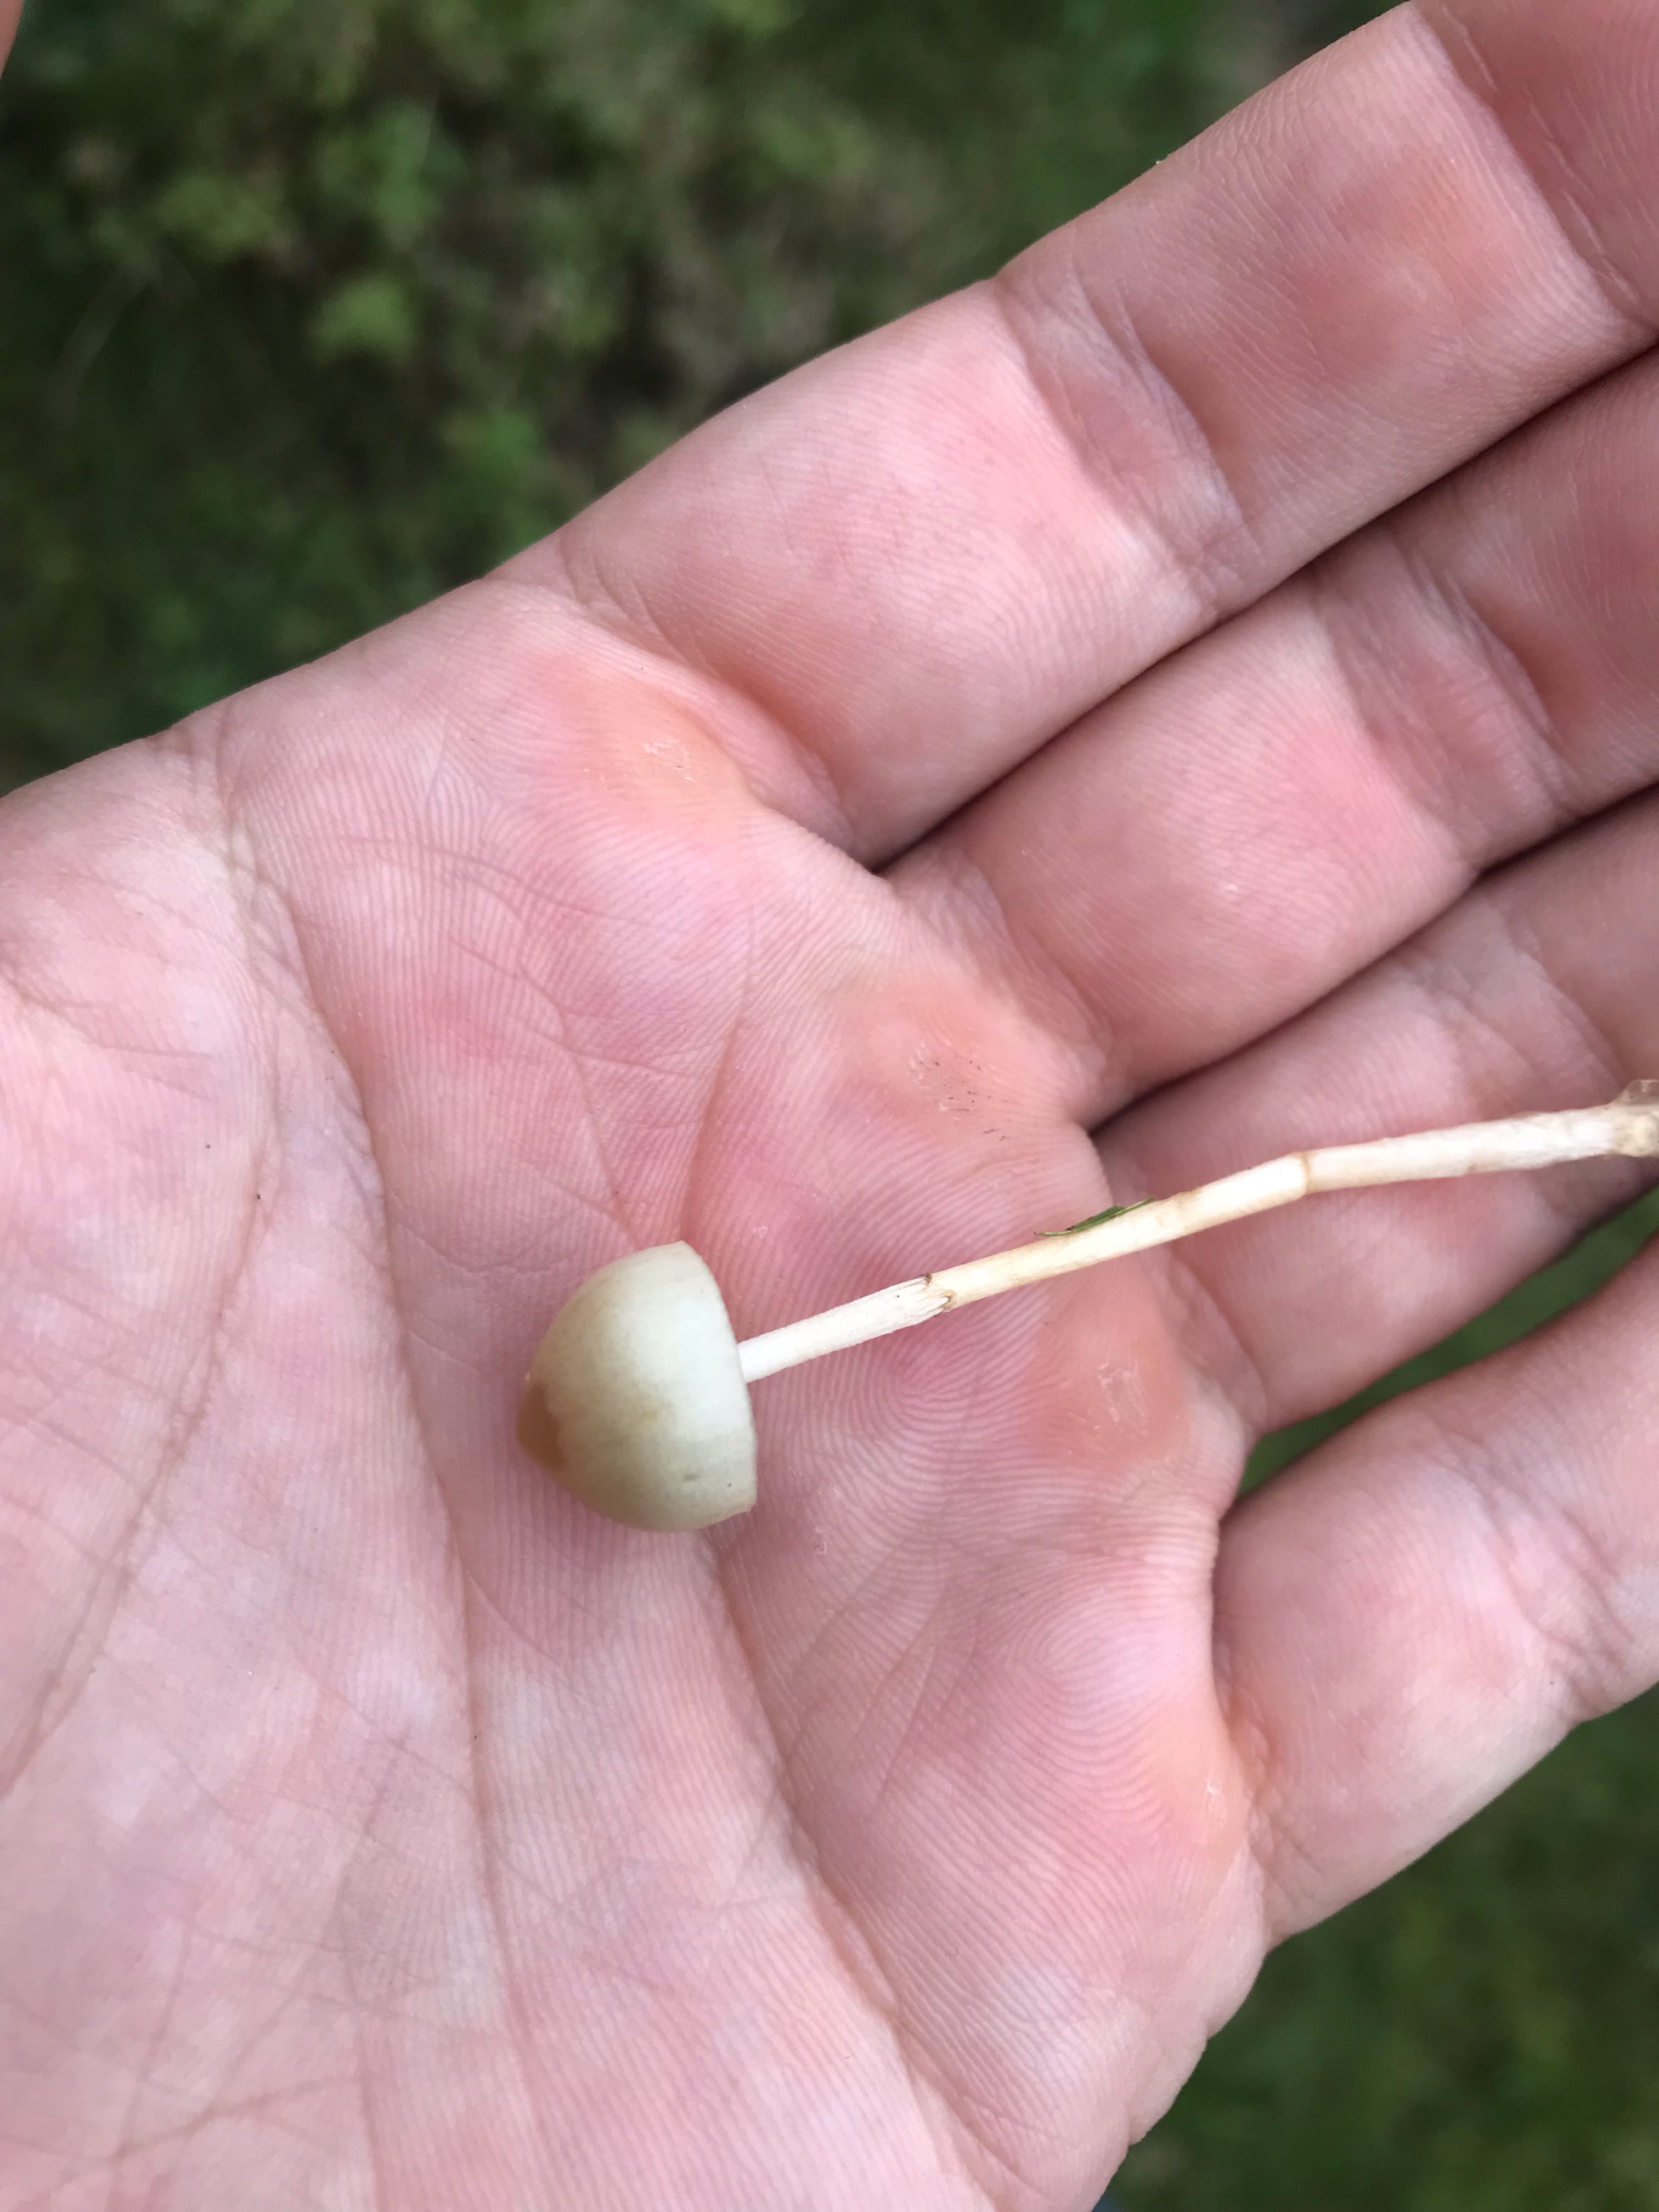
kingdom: Fungi
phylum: Basidiomycota
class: Agaricomycetes
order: Agaricales
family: Strophariaceae
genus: Protostropharia
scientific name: Protostropharia semiglobata
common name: halvkugleformet bredblad
